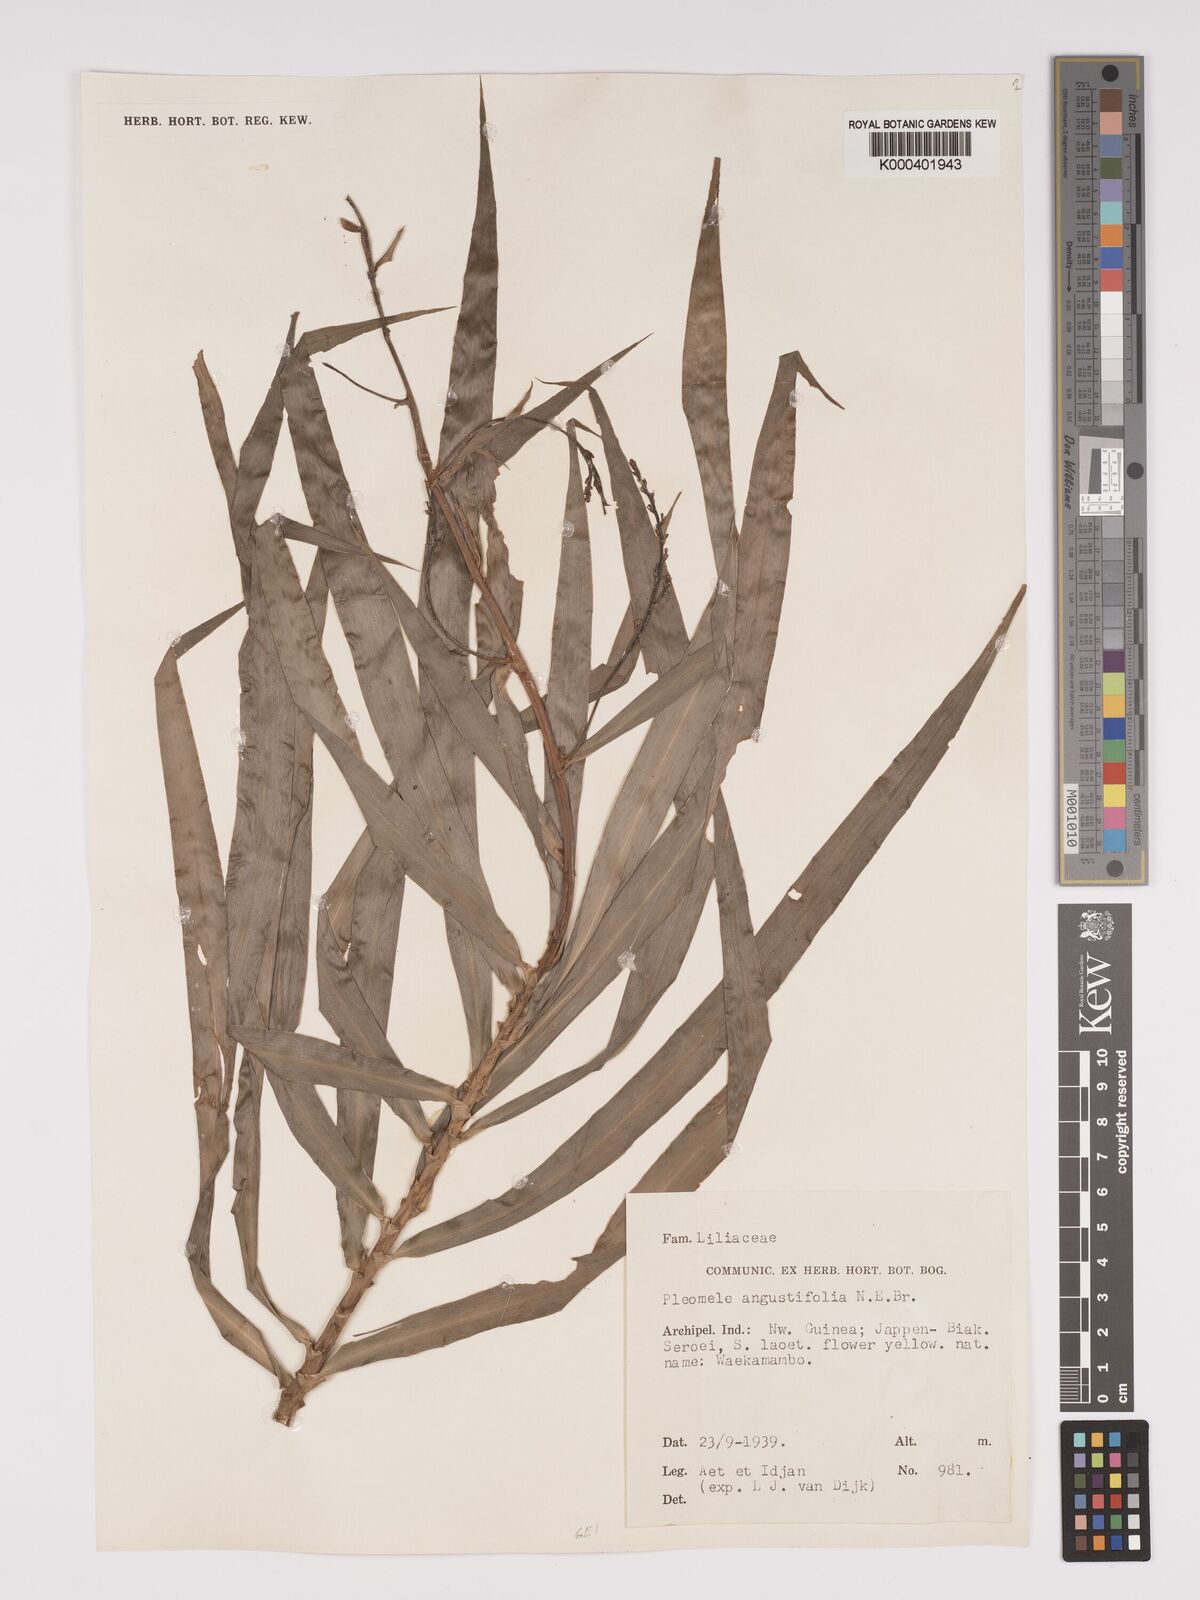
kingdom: Plantae
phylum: Tracheophyta
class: Liliopsida
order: Asparagales
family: Asparagaceae
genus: Dracaena
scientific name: Dracaena angustifolia
